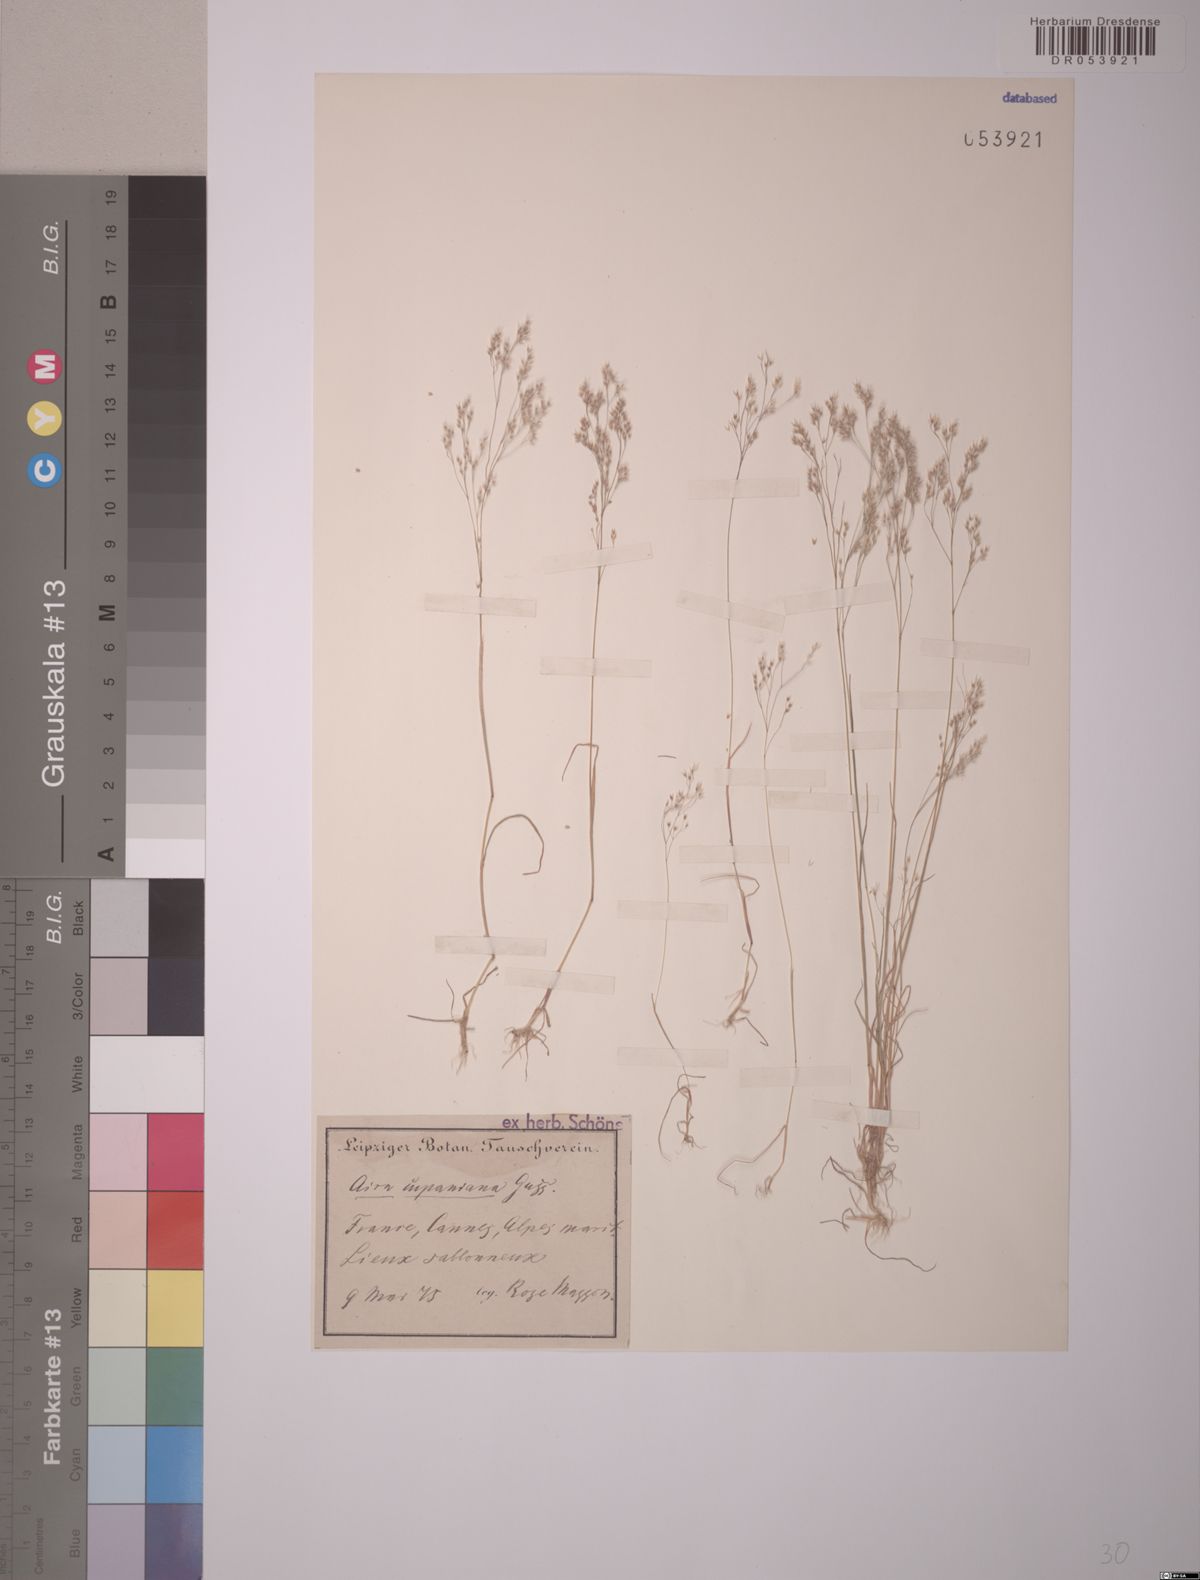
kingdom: Plantae
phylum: Tracheophyta
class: Liliopsida
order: Poales
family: Poaceae
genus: Aira
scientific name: Aira cupaniana
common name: Silver hairgrass
